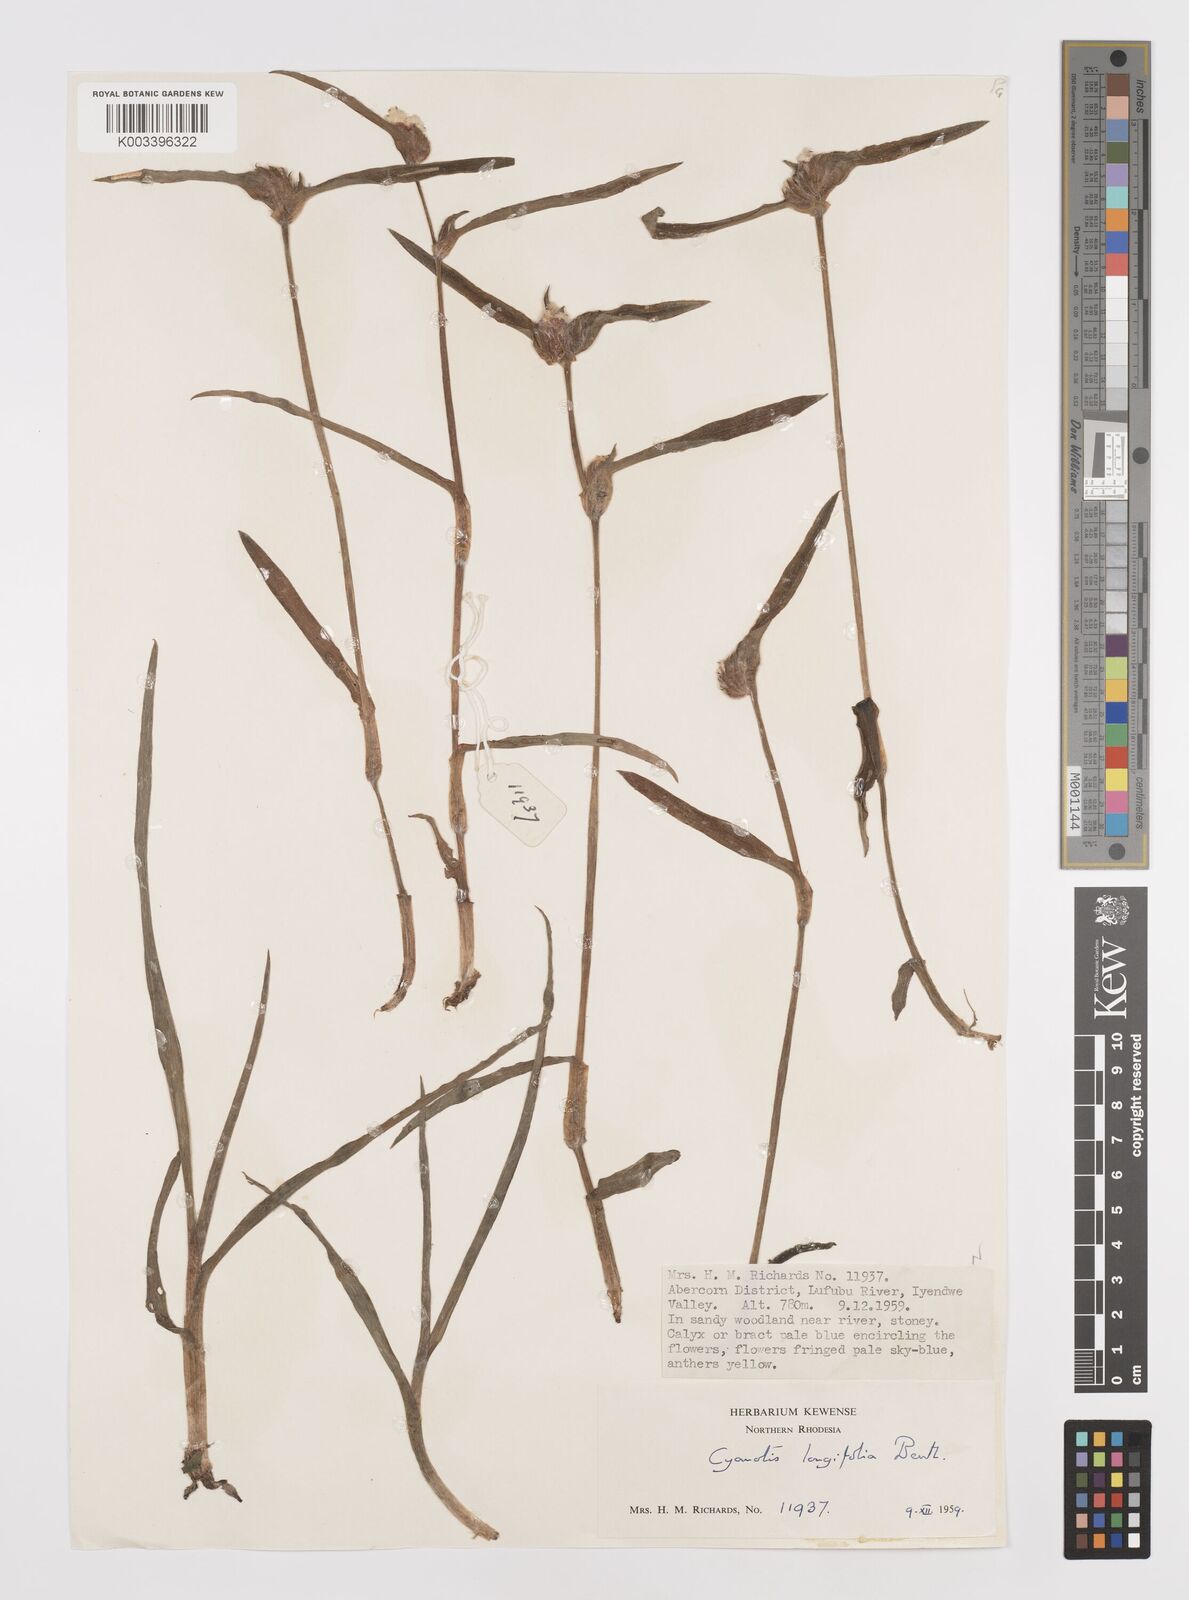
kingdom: Plantae
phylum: Tracheophyta
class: Liliopsida
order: Commelinales
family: Commelinaceae
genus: Cyanotis
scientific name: Cyanotis longifolia
